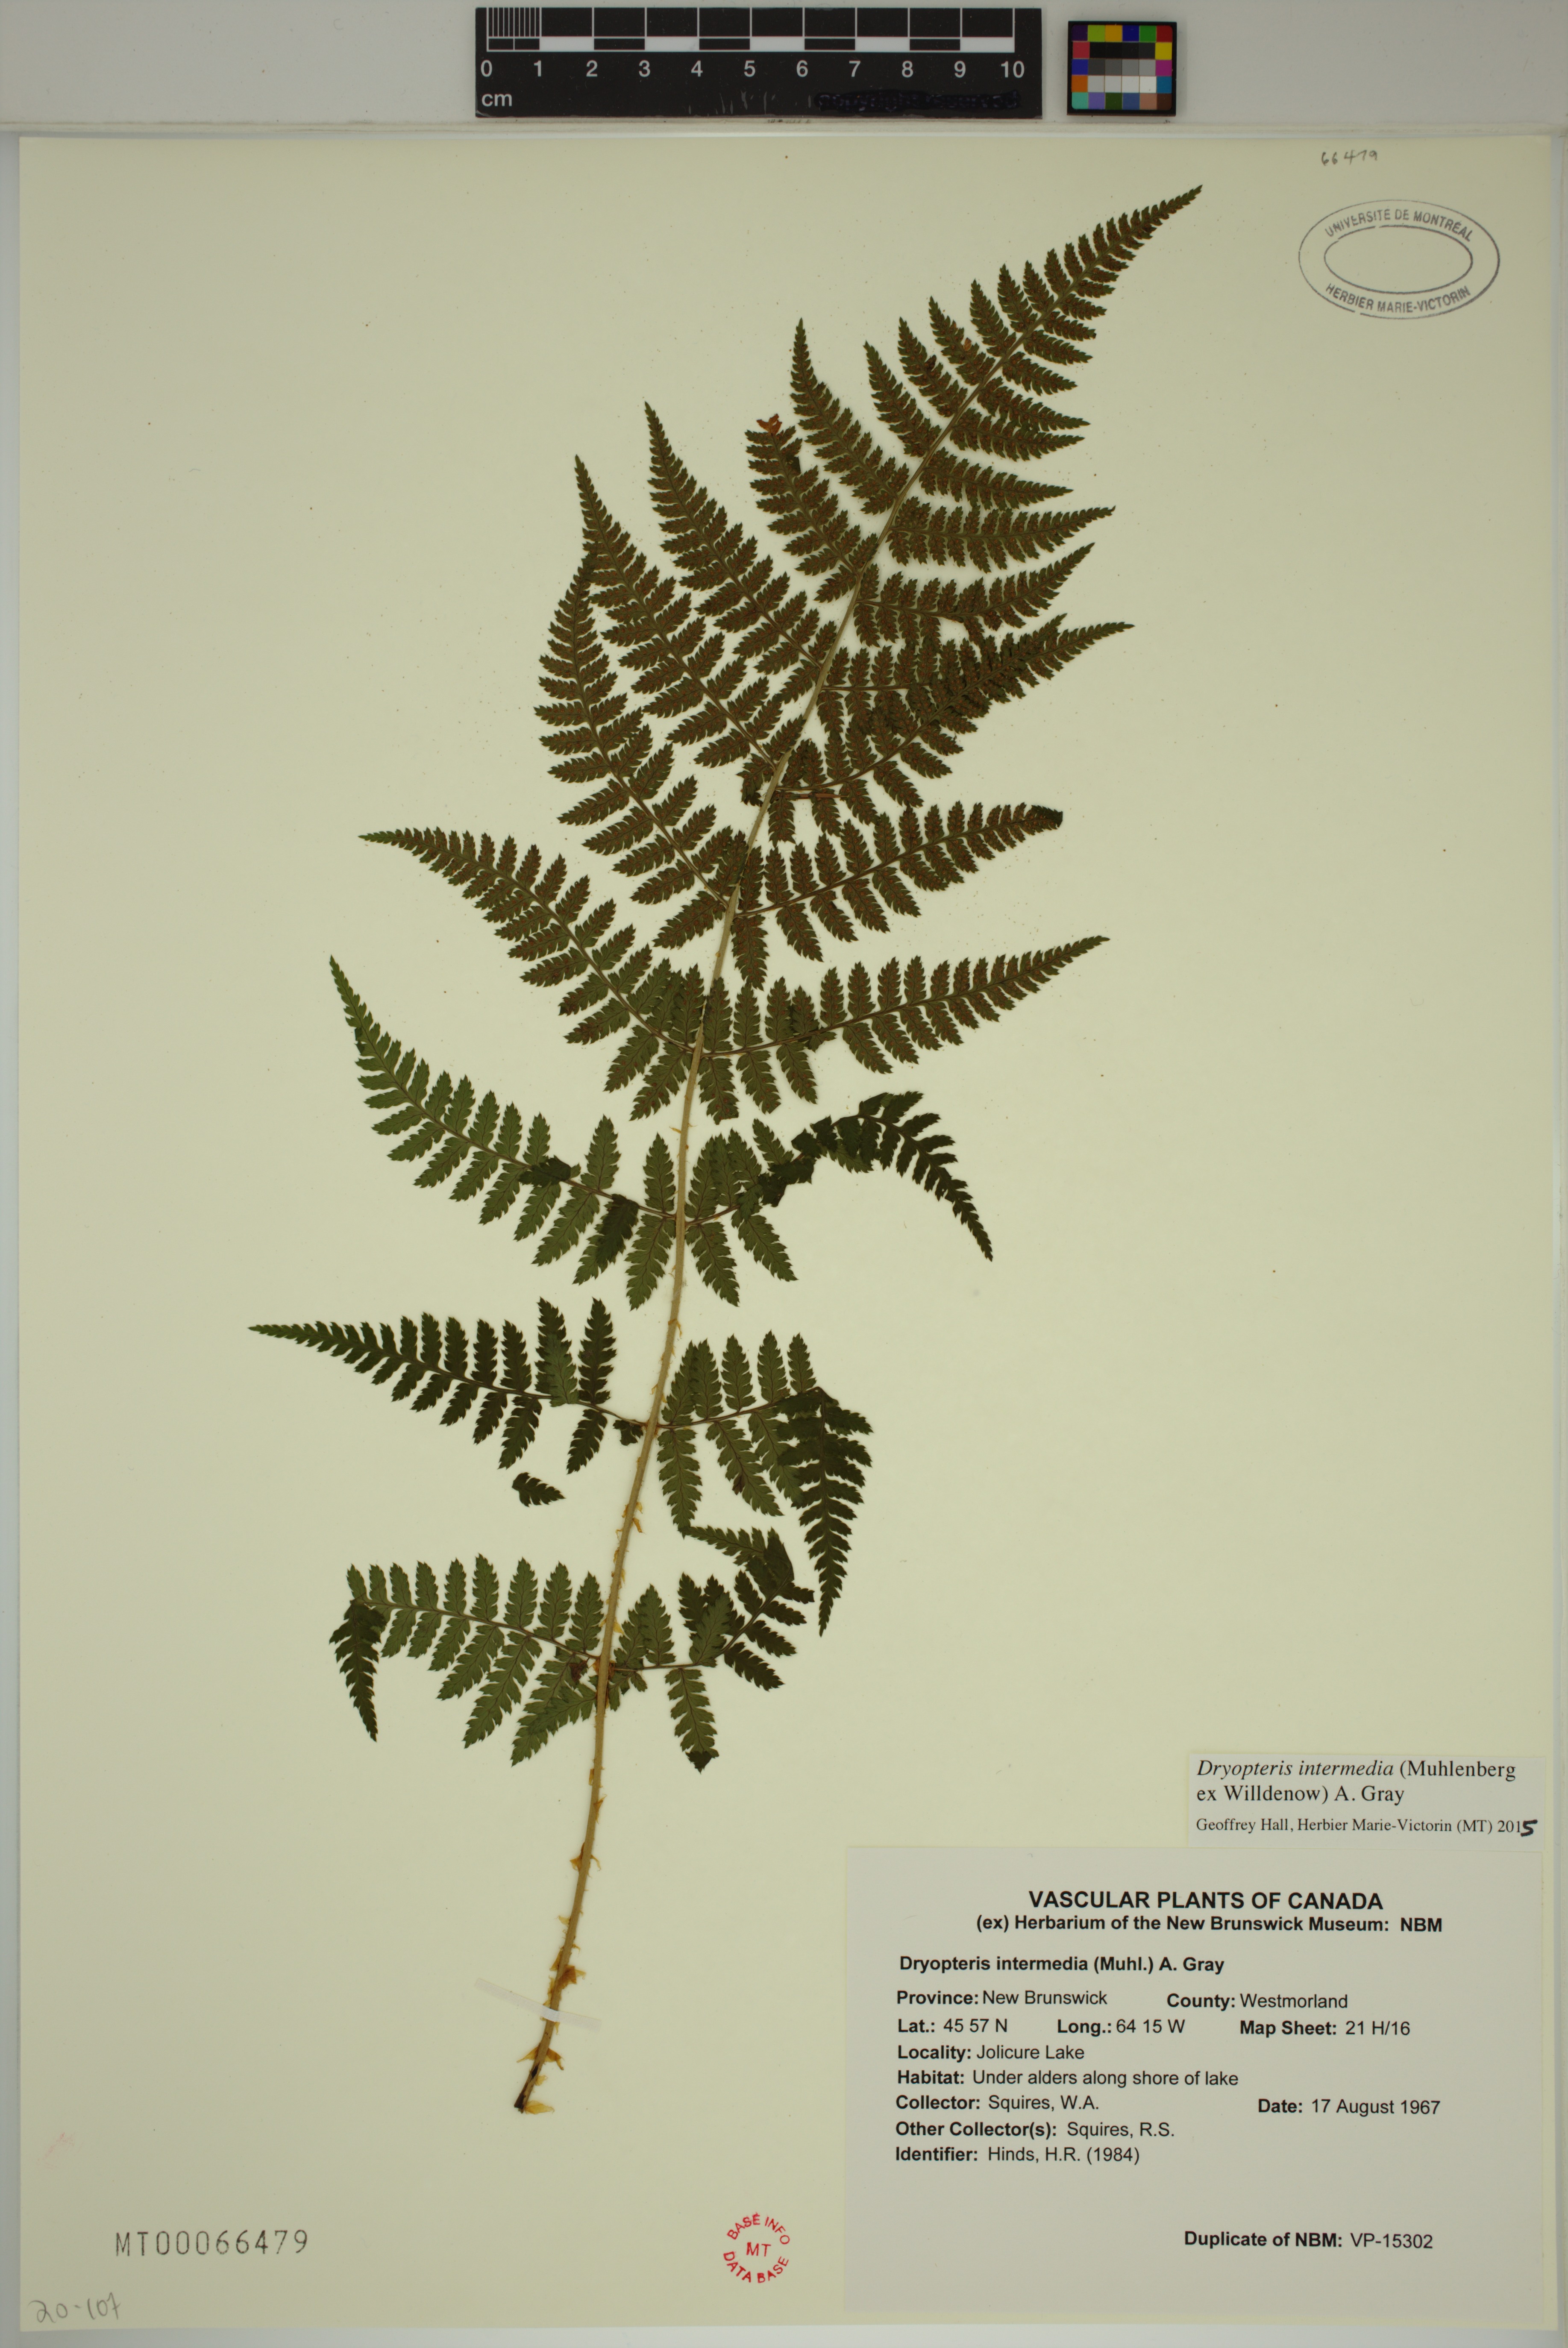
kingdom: Plantae
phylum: Tracheophyta
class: Polypodiopsida
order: Polypodiales
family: Dryopteridaceae
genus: Dryopteris
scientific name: Dryopteris intermedia
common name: Evergreen wood fern
